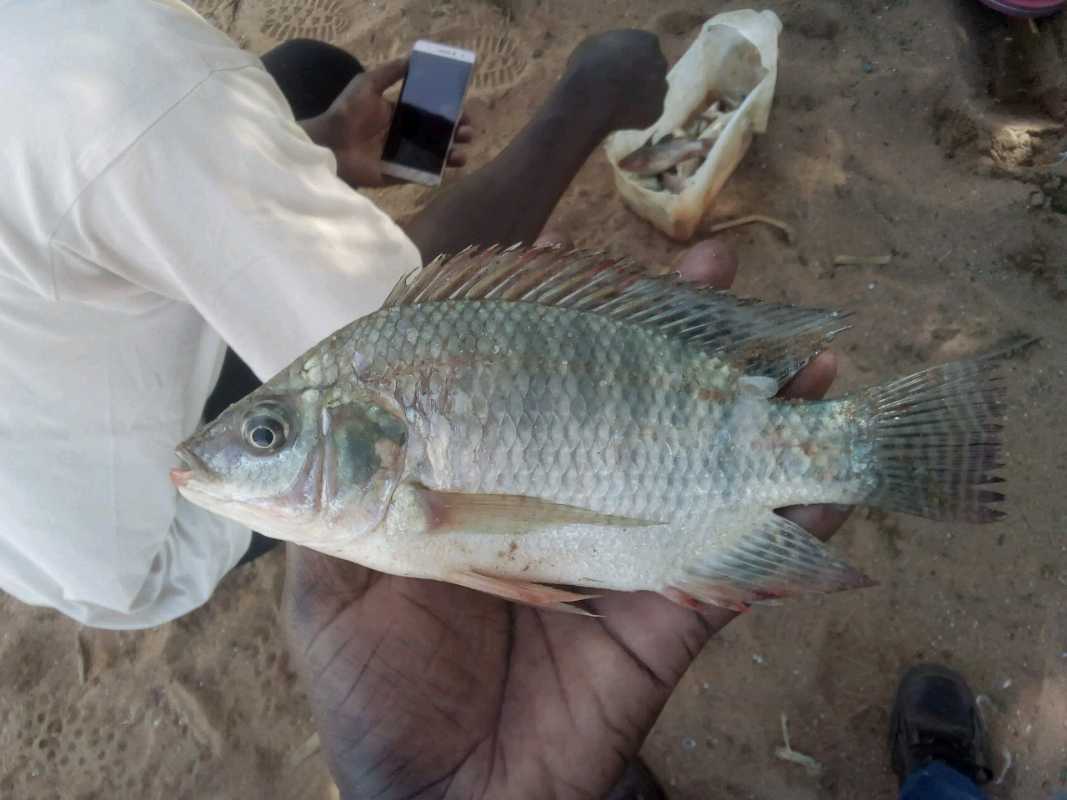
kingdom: Animalia
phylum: Chordata
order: Perciformes
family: Cichlidae
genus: Oreochromis
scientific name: Oreochromis niloticus
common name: Nile tilapia
